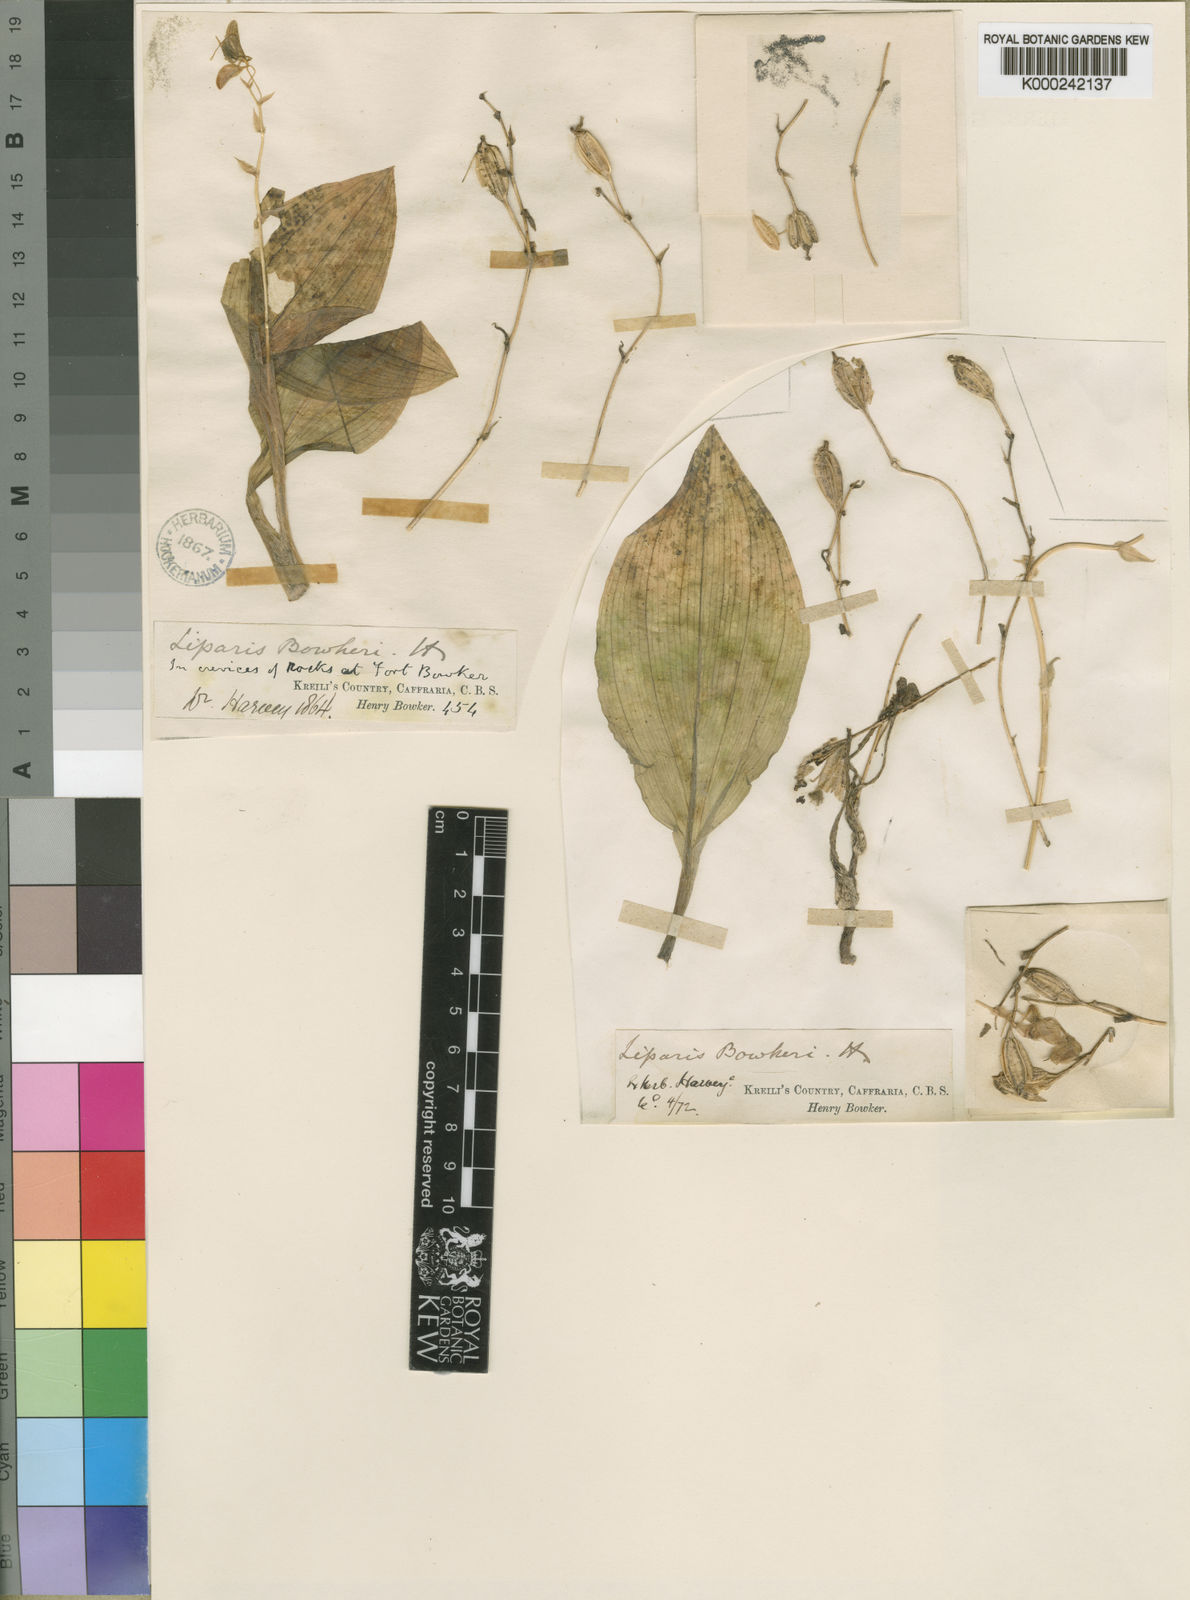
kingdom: Plantae
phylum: Tracheophyta
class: Liliopsida
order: Asparagales
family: Orchidaceae
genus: Liparis
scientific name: Liparis bowkeri
